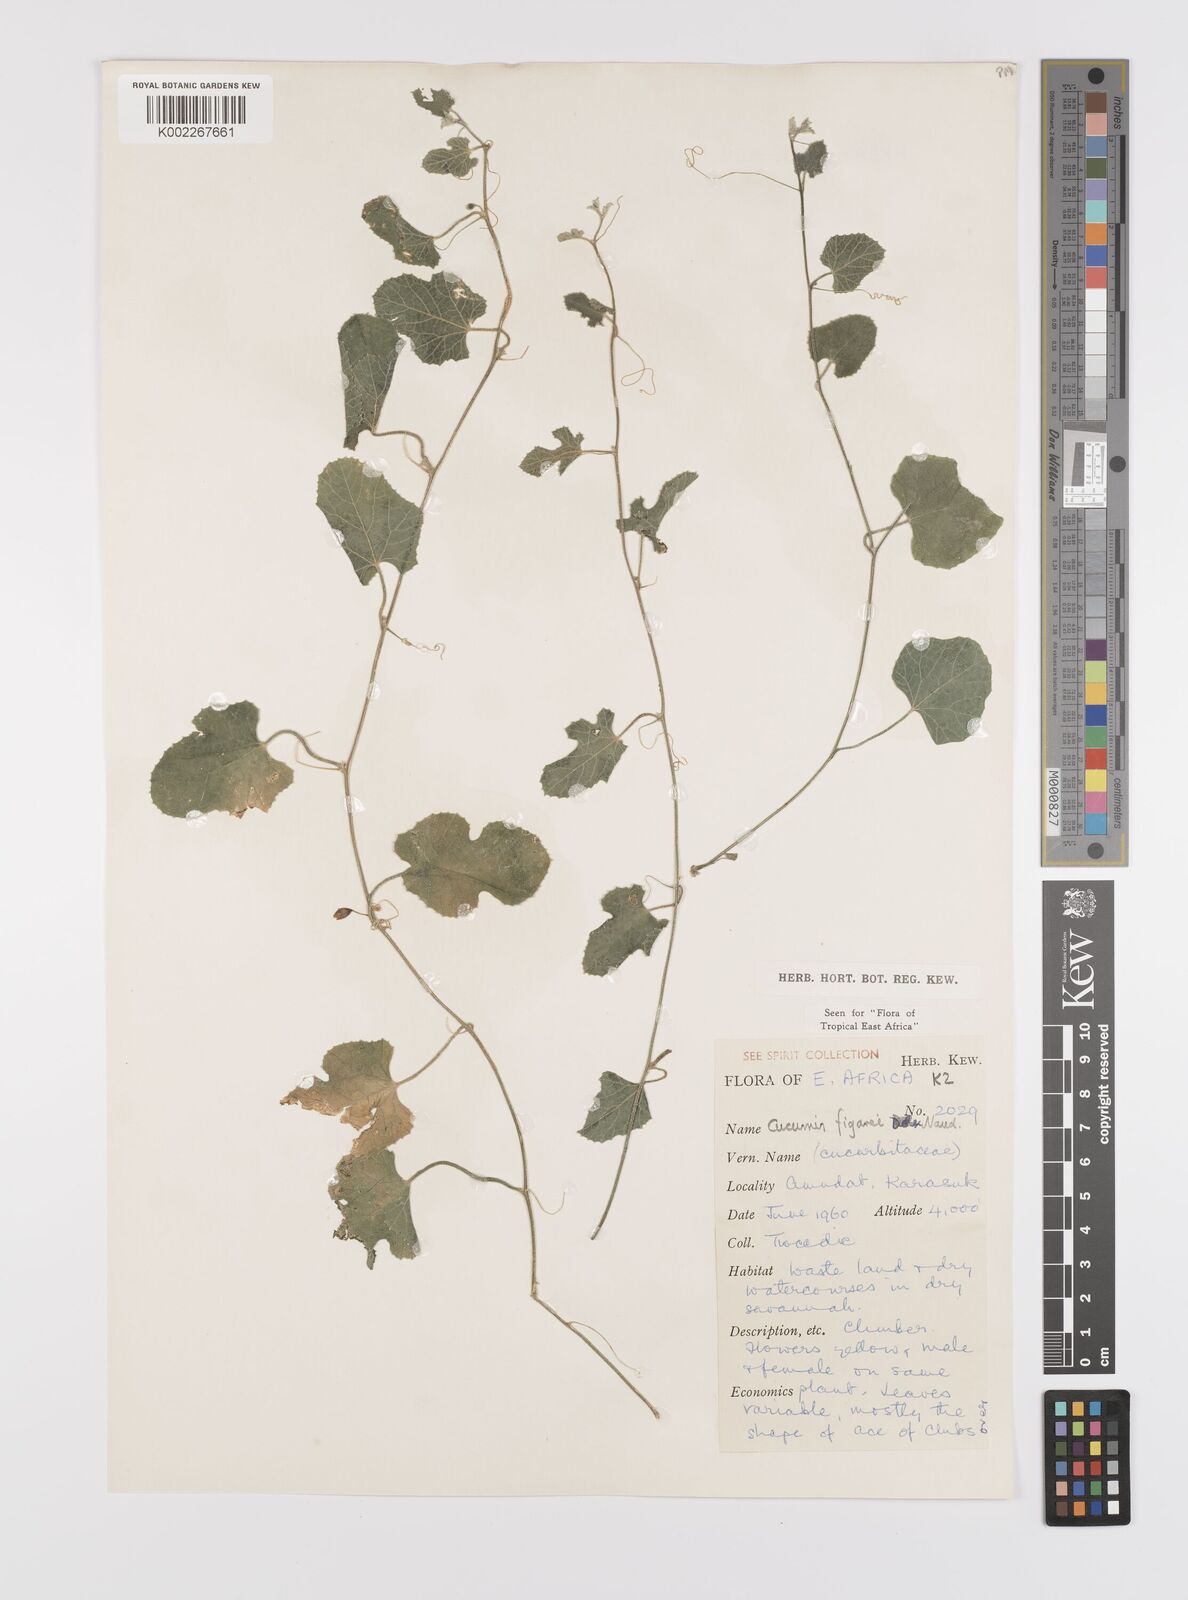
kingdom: Plantae
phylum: Tracheophyta
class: Magnoliopsida
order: Cucurbitales
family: Cucurbitaceae
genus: Cucumis
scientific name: Cucumis pustulatus
